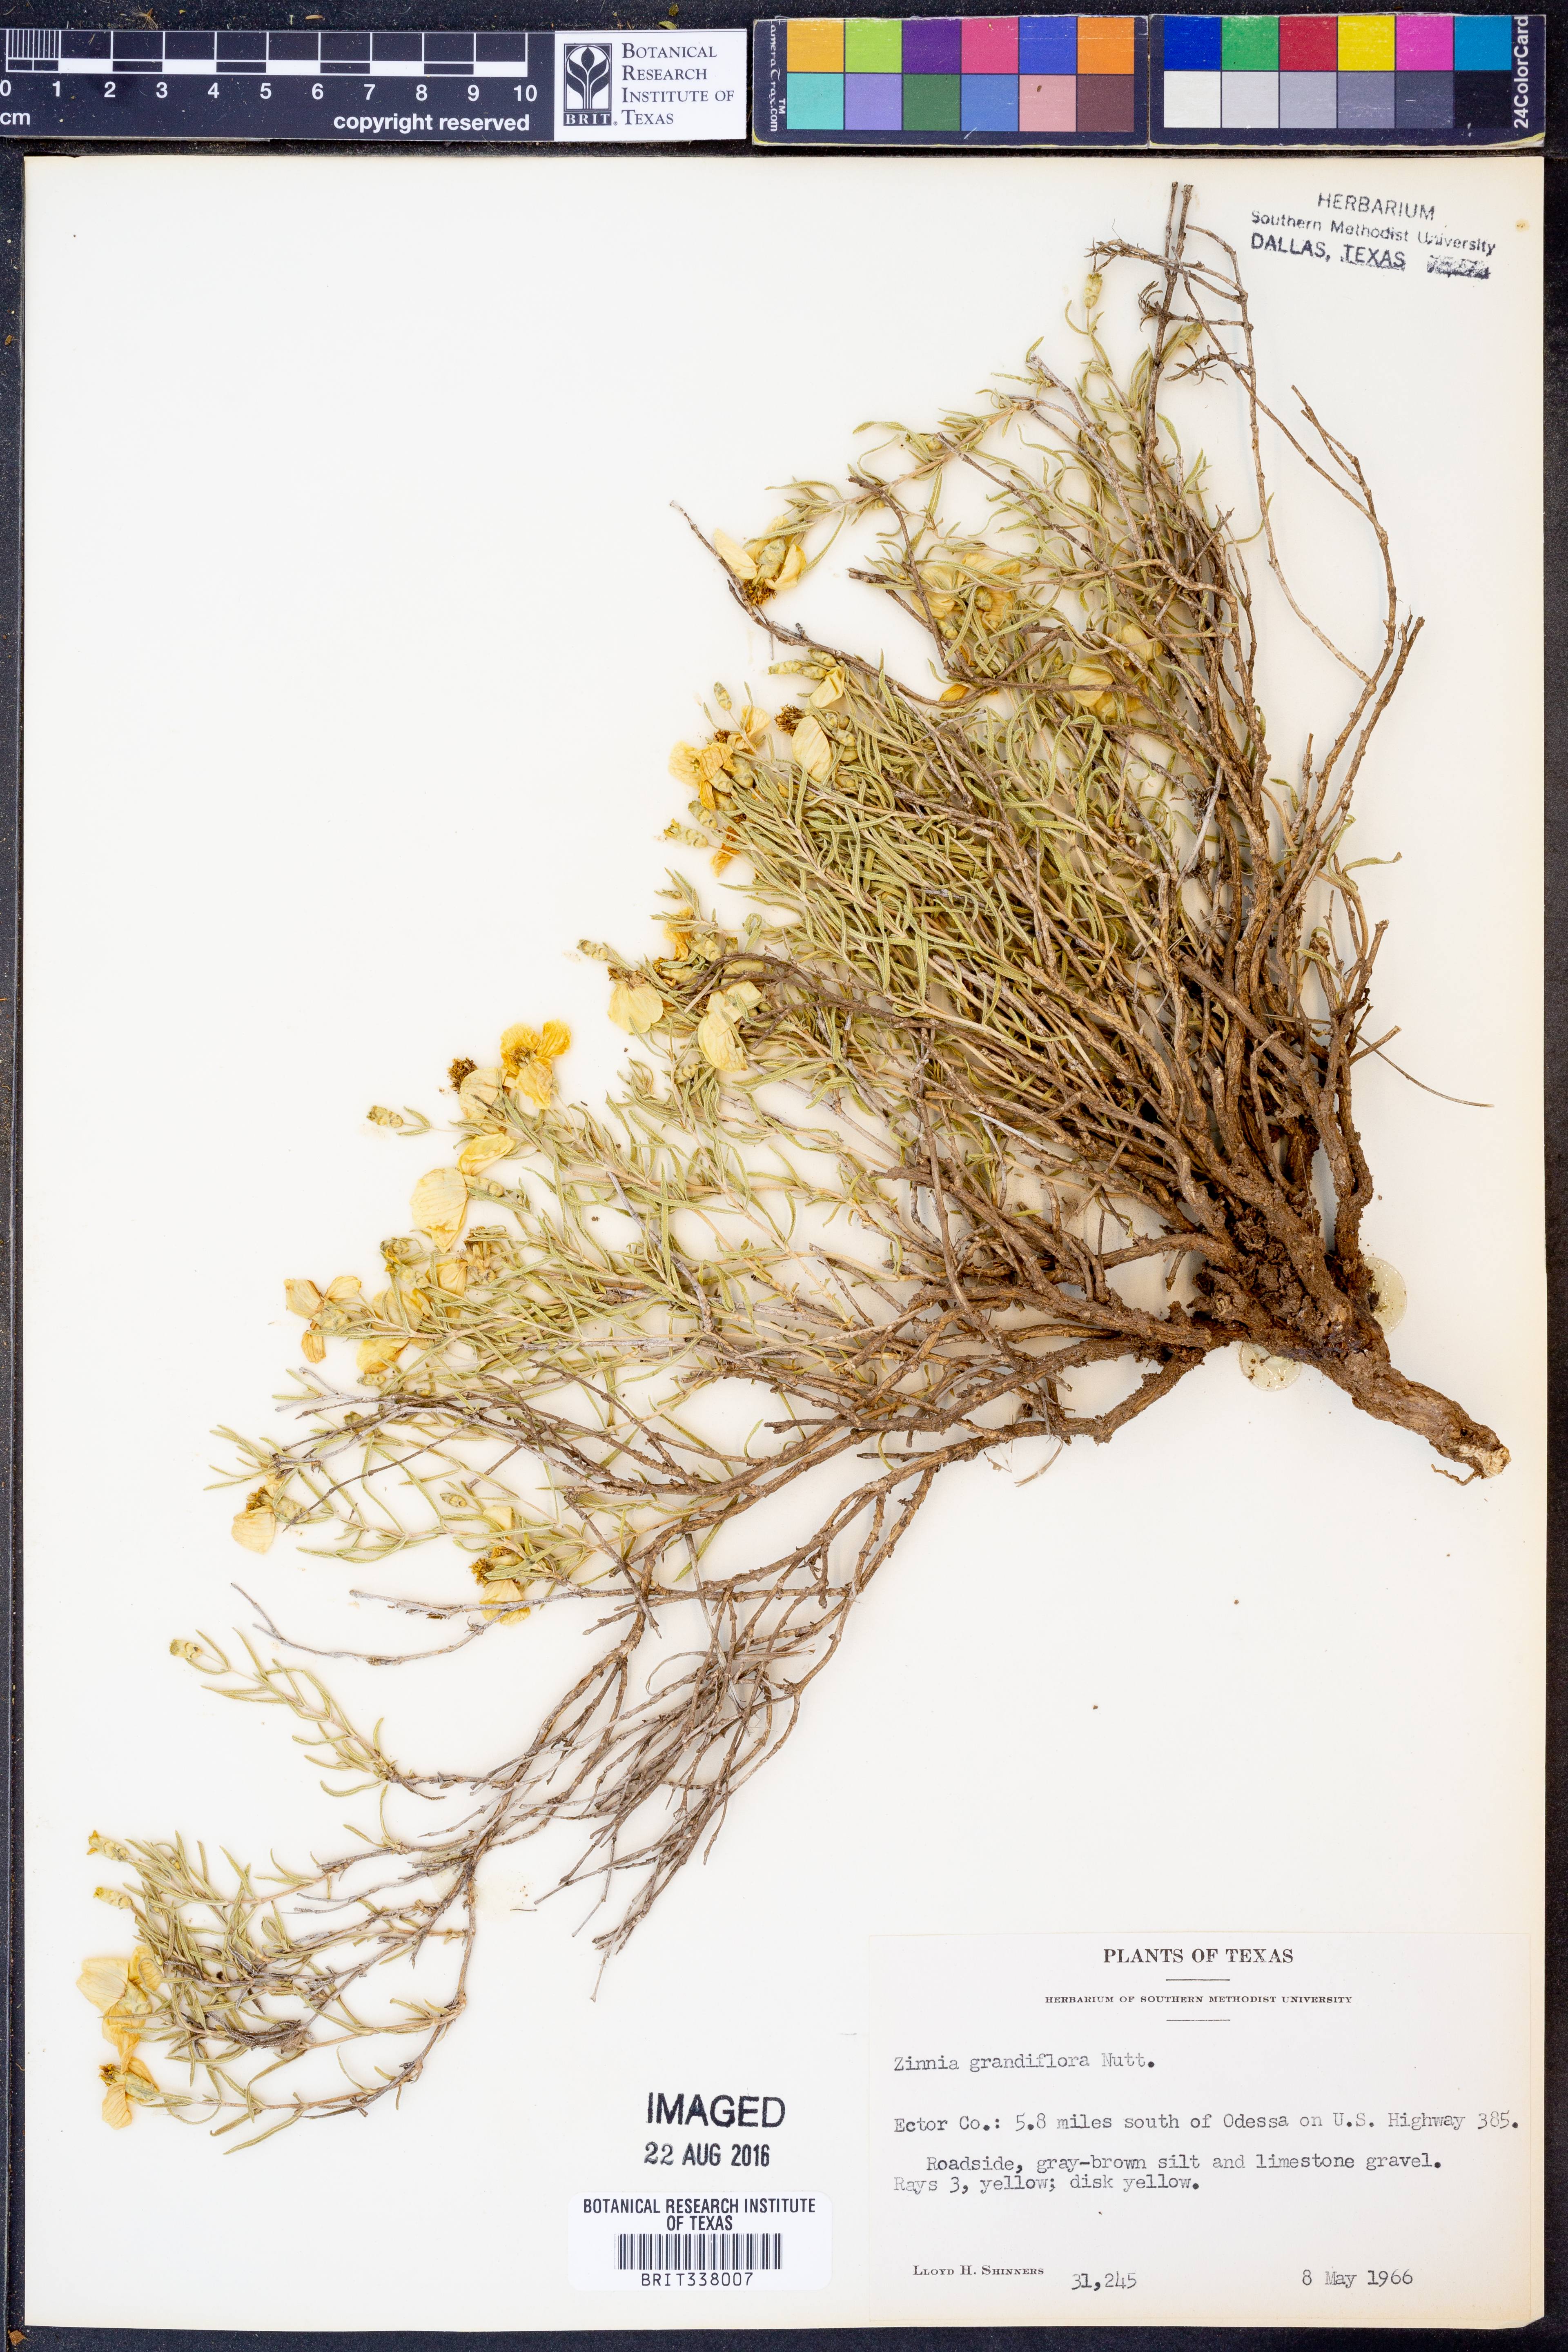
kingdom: Plantae
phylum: Tracheophyta
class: Magnoliopsida
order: Asterales
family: Asteraceae
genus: Zinnia
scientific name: Zinnia grandiflora
